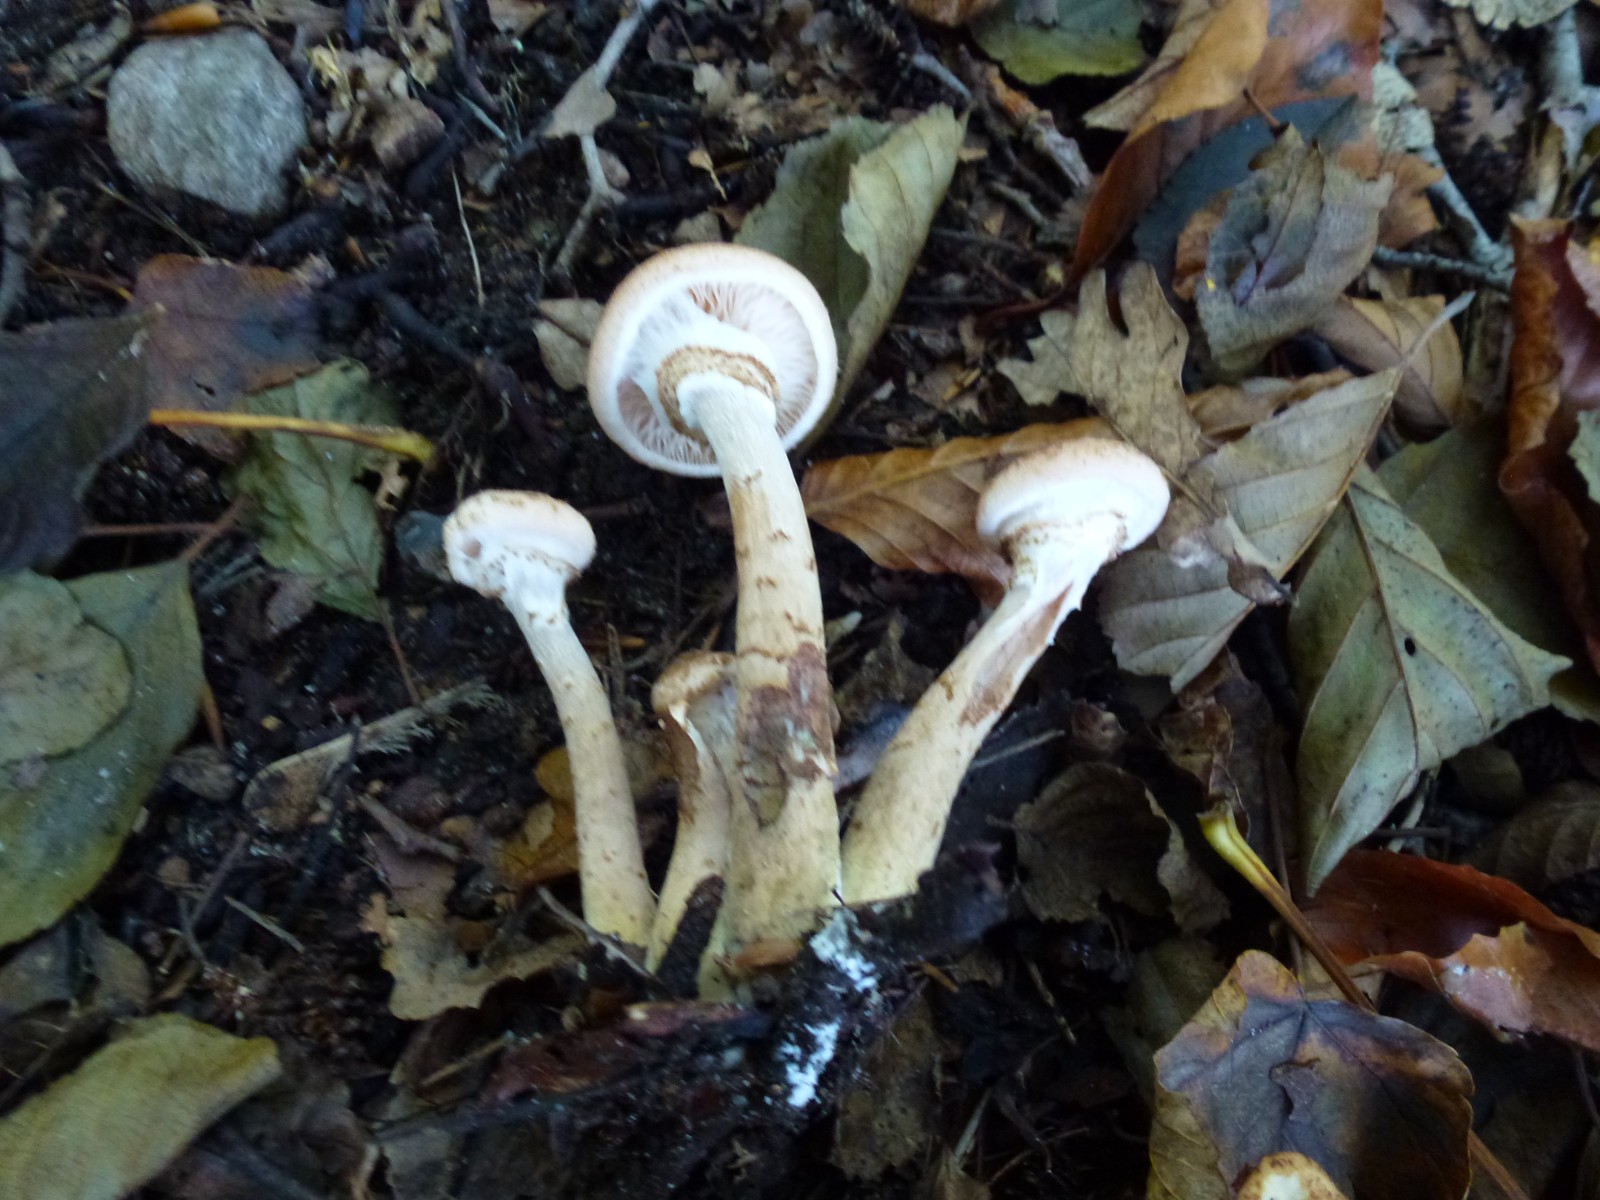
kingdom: Fungi
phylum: Basidiomycota
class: Agaricomycetes
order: Agaricales
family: Physalacriaceae
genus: Armillaria
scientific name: Armillaria lutea
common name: køllestokket honningsvamp
